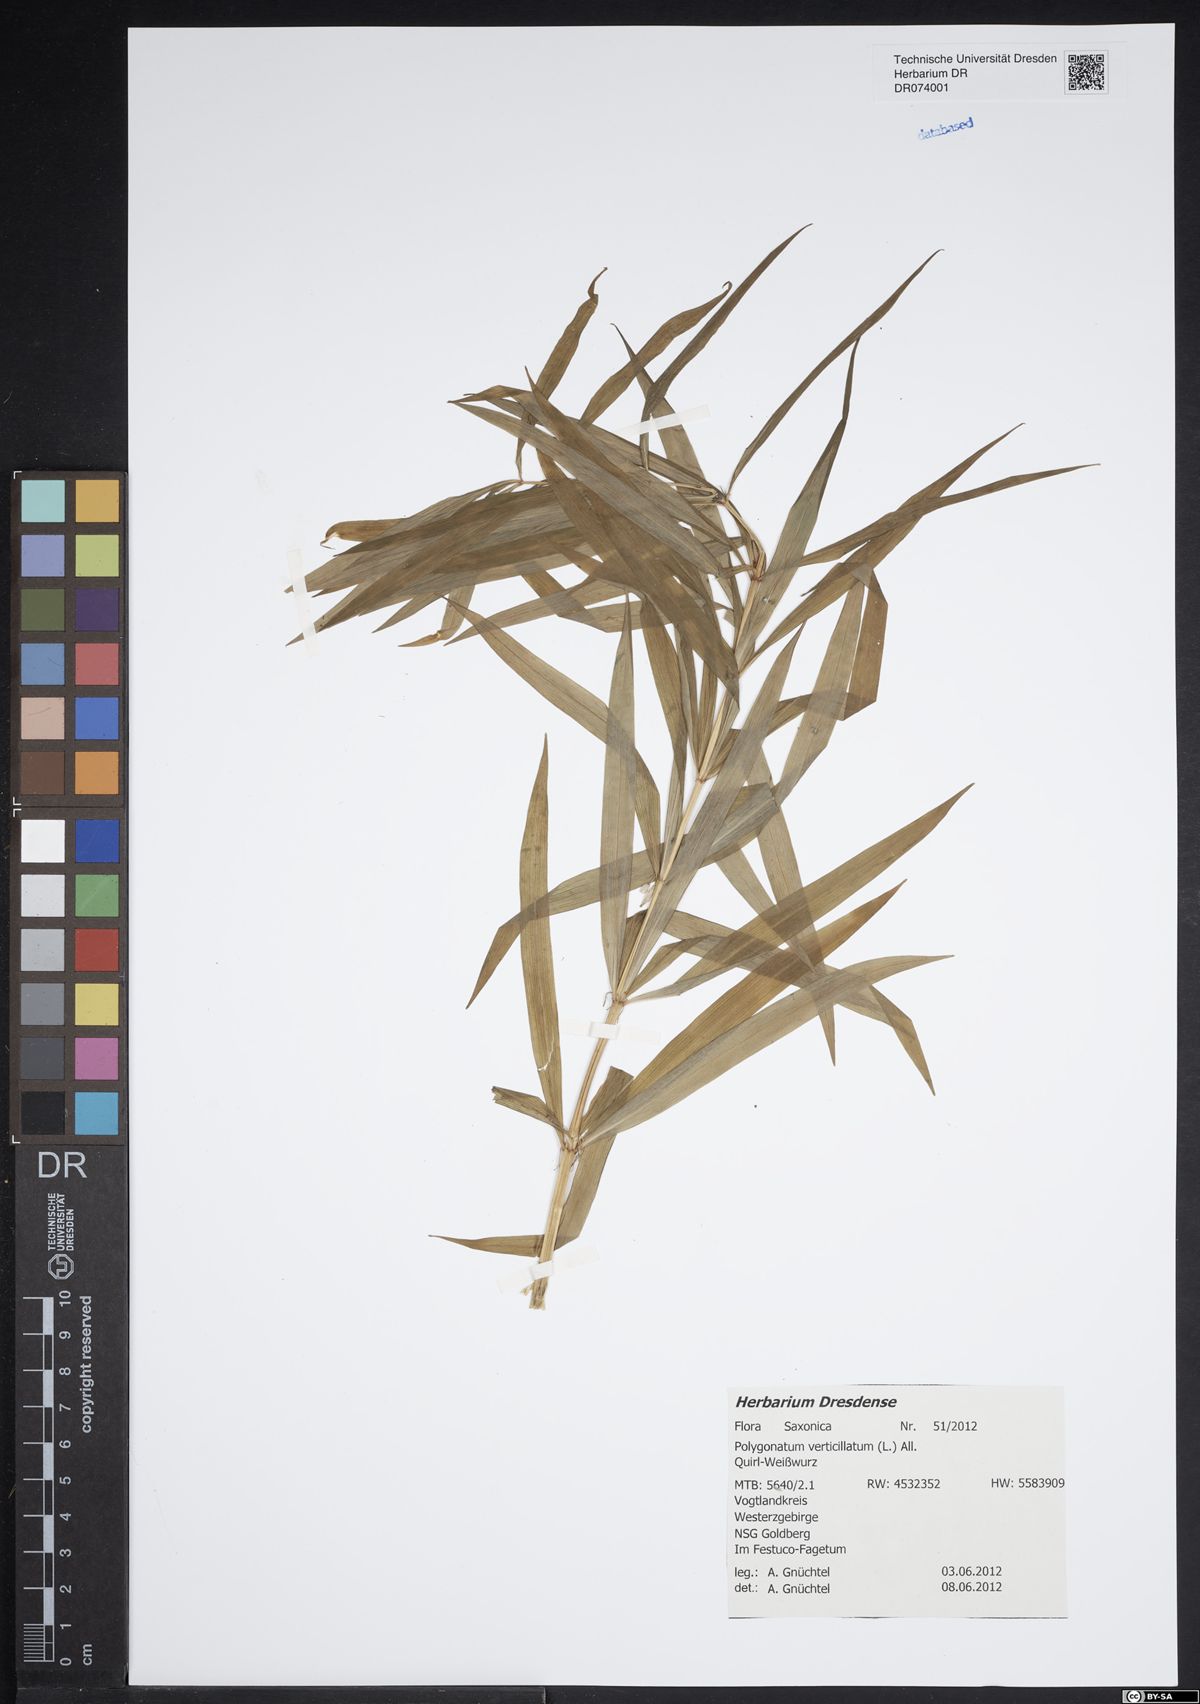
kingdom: Plantae
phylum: Tracheophyta
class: Liliopsida
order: Asparagales
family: Asparagaceae
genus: Polygonatum
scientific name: Polygonatum verticillatum
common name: Whorled solomon's-seal
